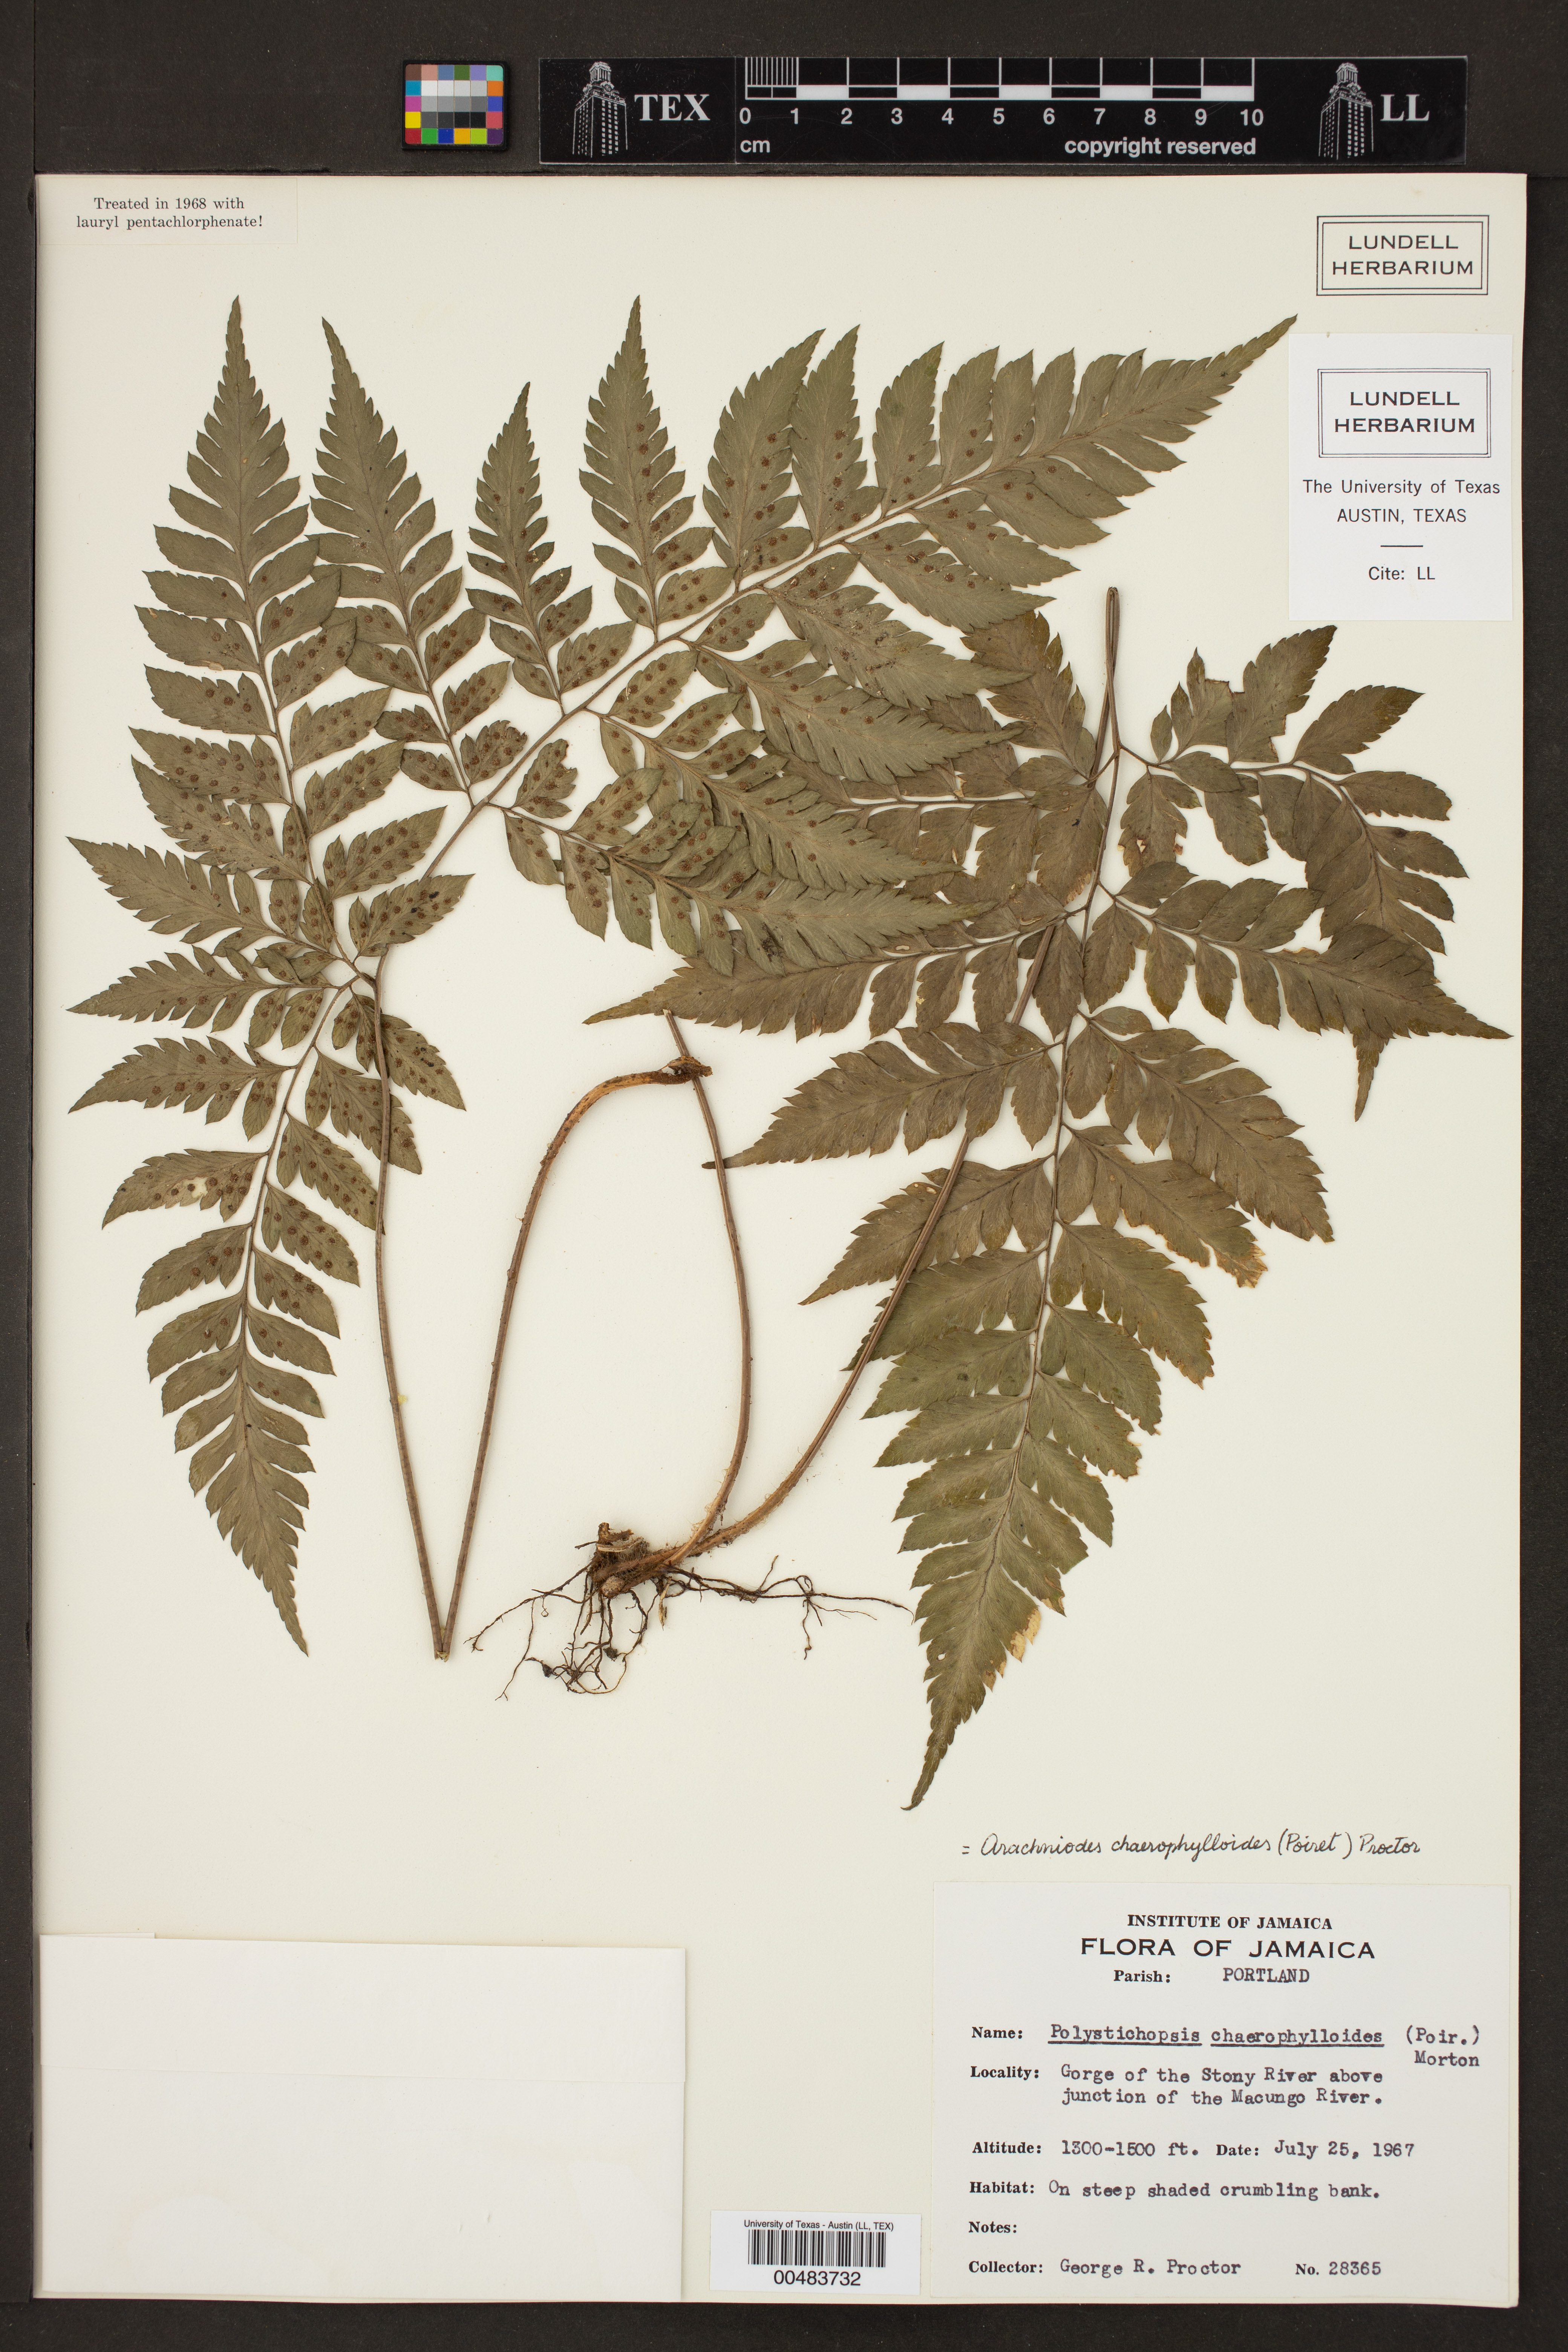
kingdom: Plantae
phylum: Tracheophyta
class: Polypodiopsida
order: Polypodiales
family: Dryopteridaceae
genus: Polystichopsis
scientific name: Polystichopsis chaerophylloides
